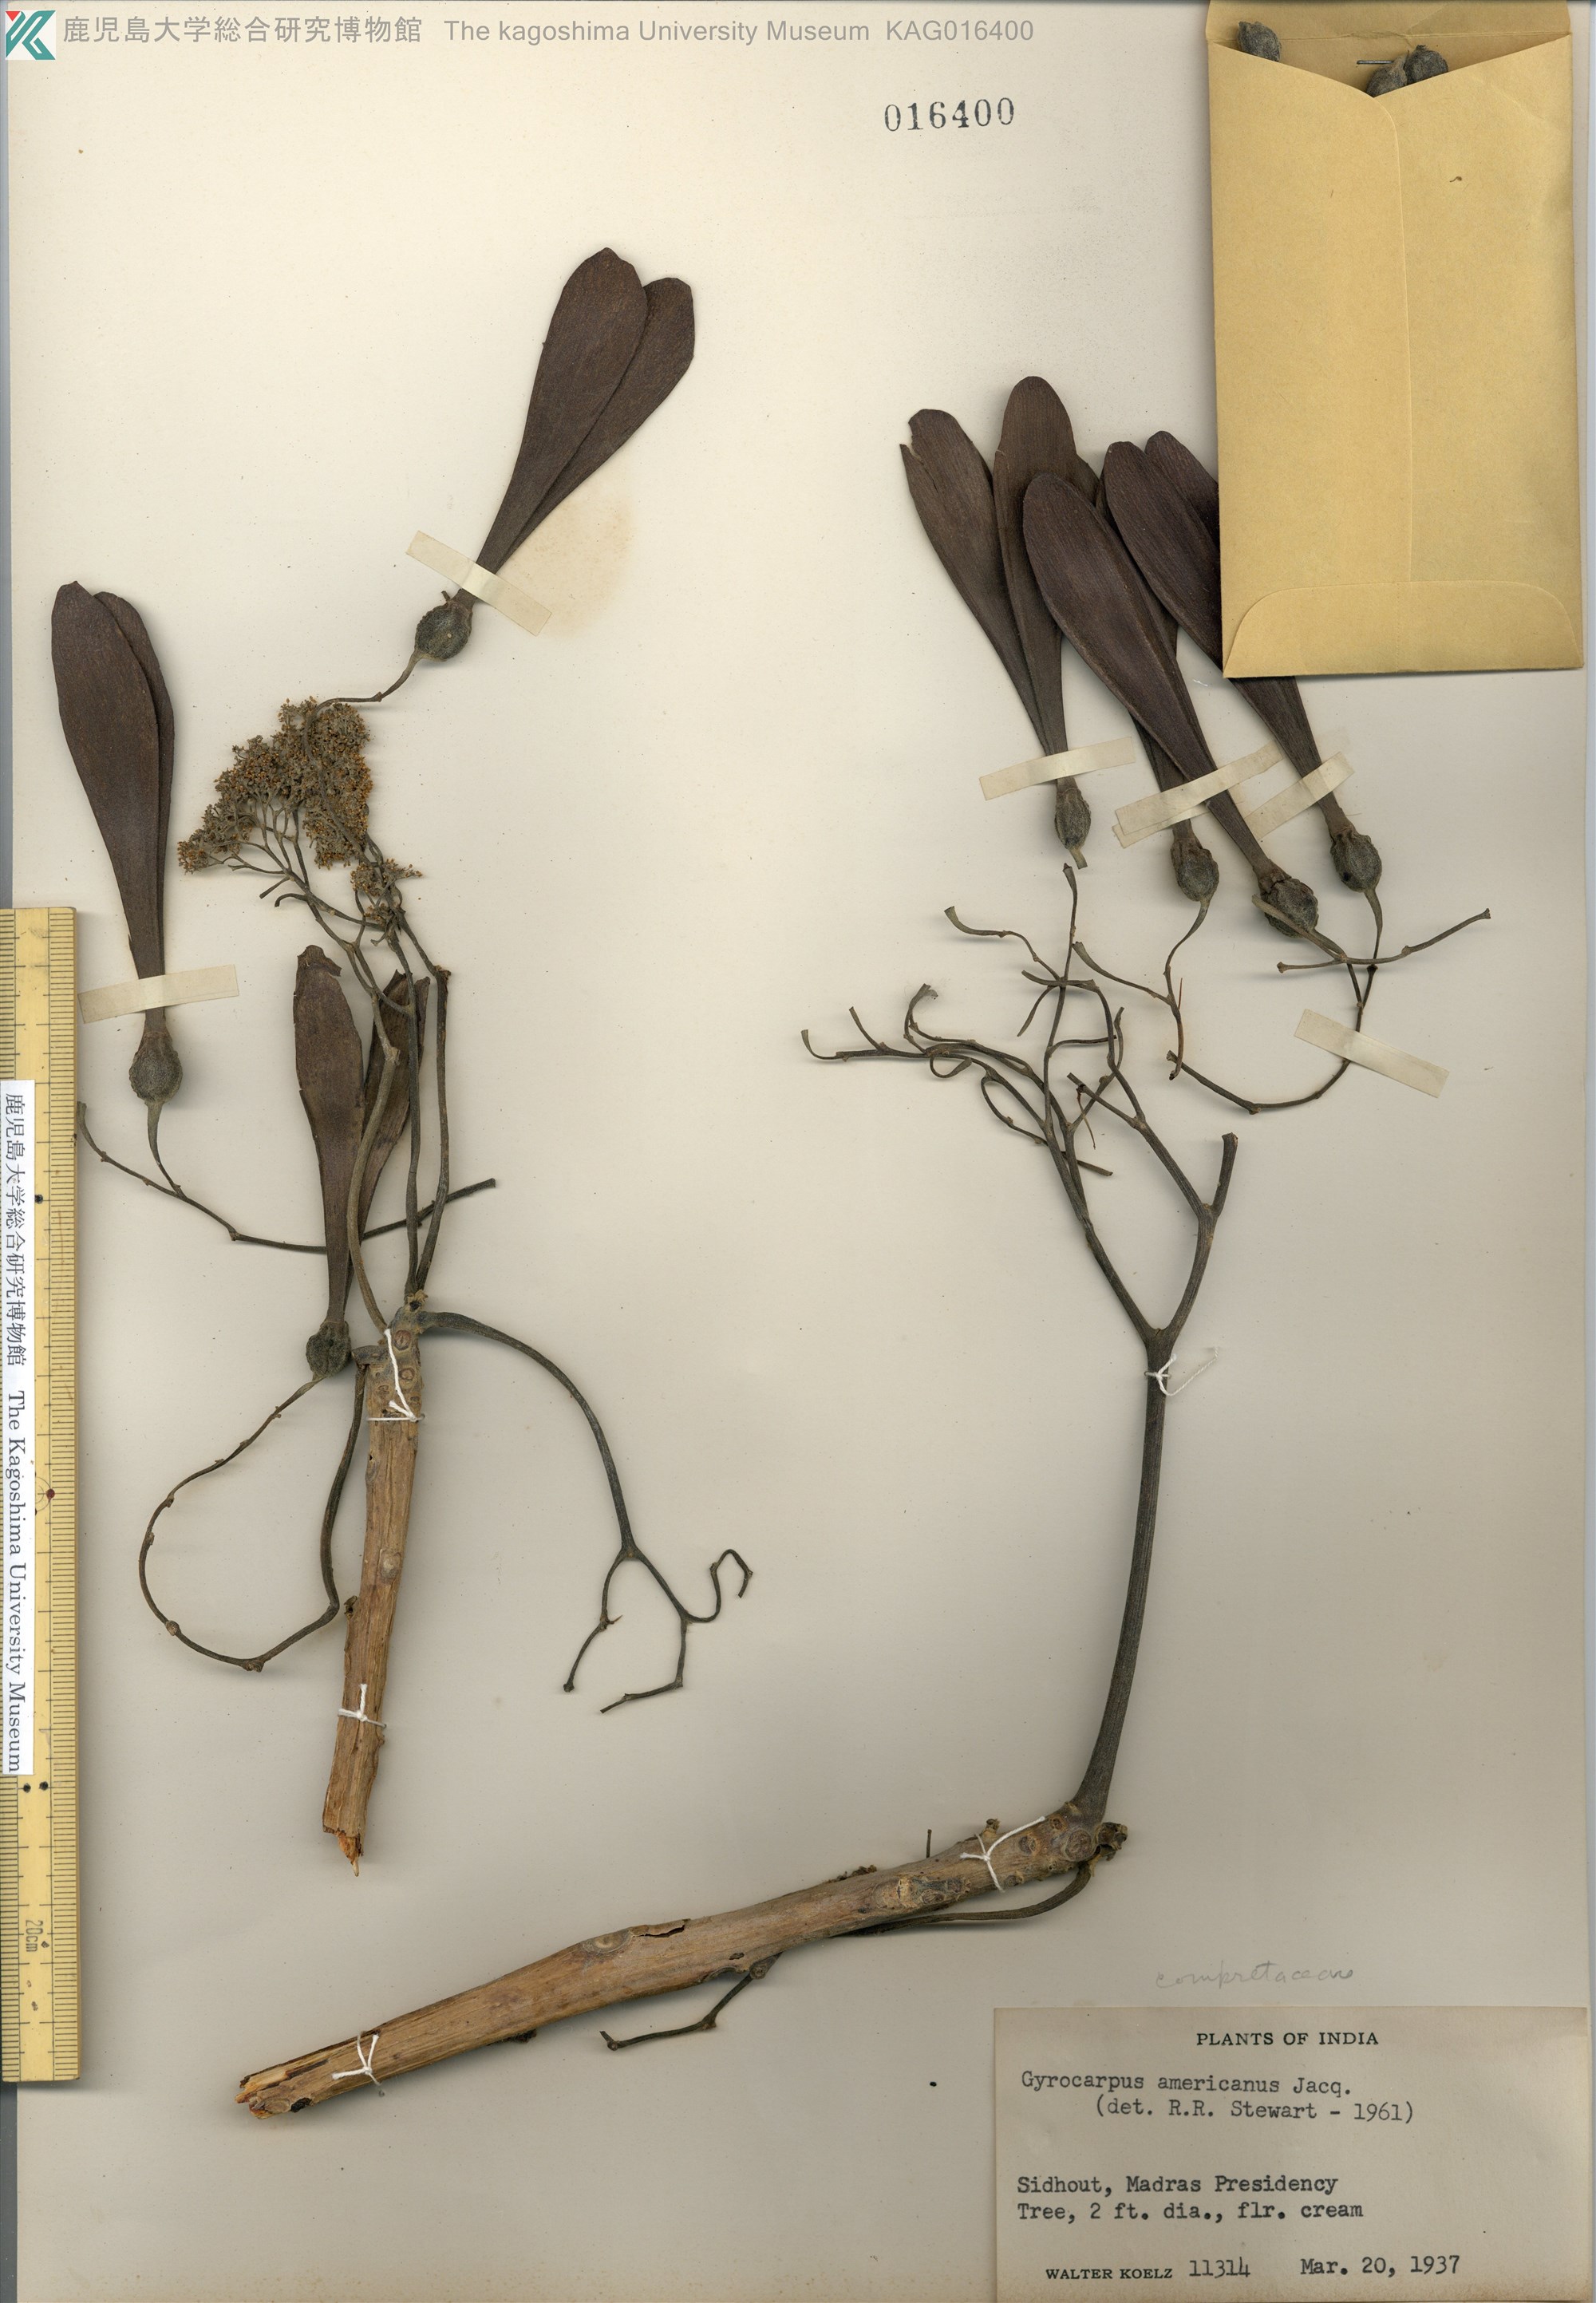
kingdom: Plantae
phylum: Tracheophyta
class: Magnoliopsida
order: Laurales
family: Hernandiaceae
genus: Gyrocarpus
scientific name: Gyrocarpus americanus
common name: Gyro damson
